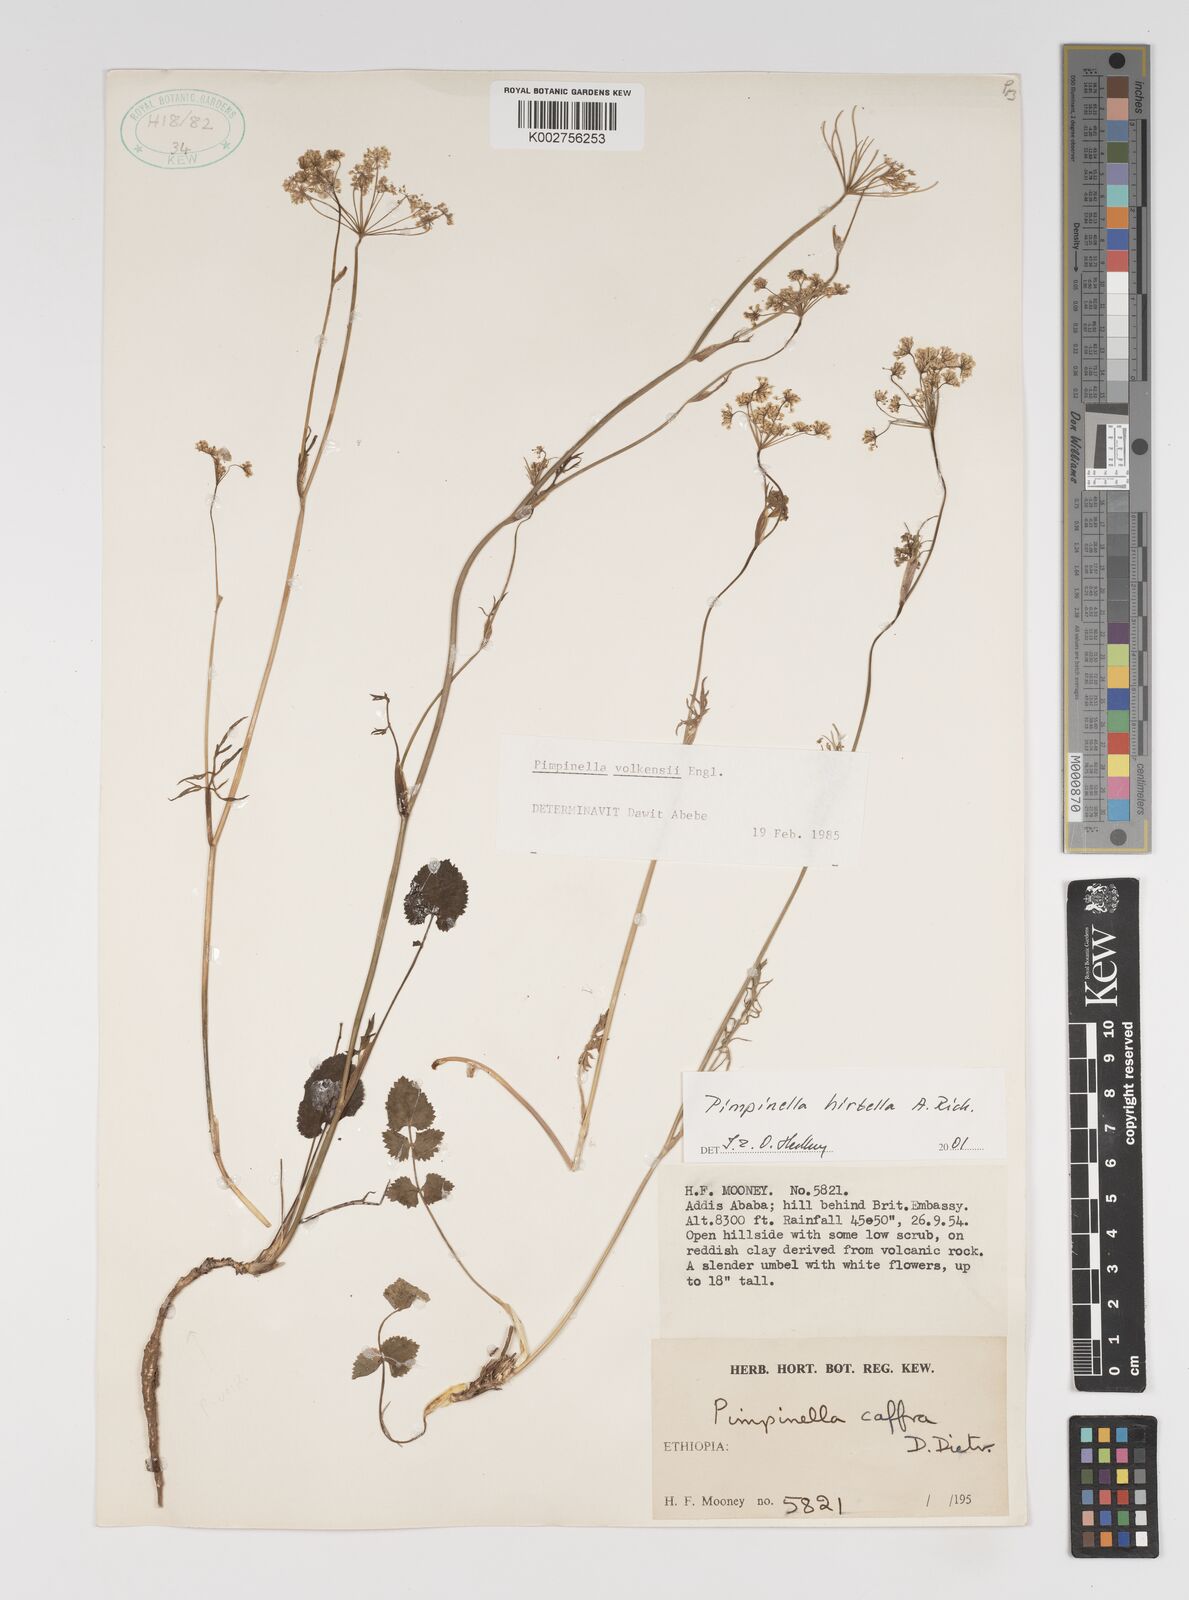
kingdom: Plantae
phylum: Tracheophyta
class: Magnoliopsida
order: Apiales
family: Apiaceae
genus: Pimpinella
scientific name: Pimpinella hirtella
